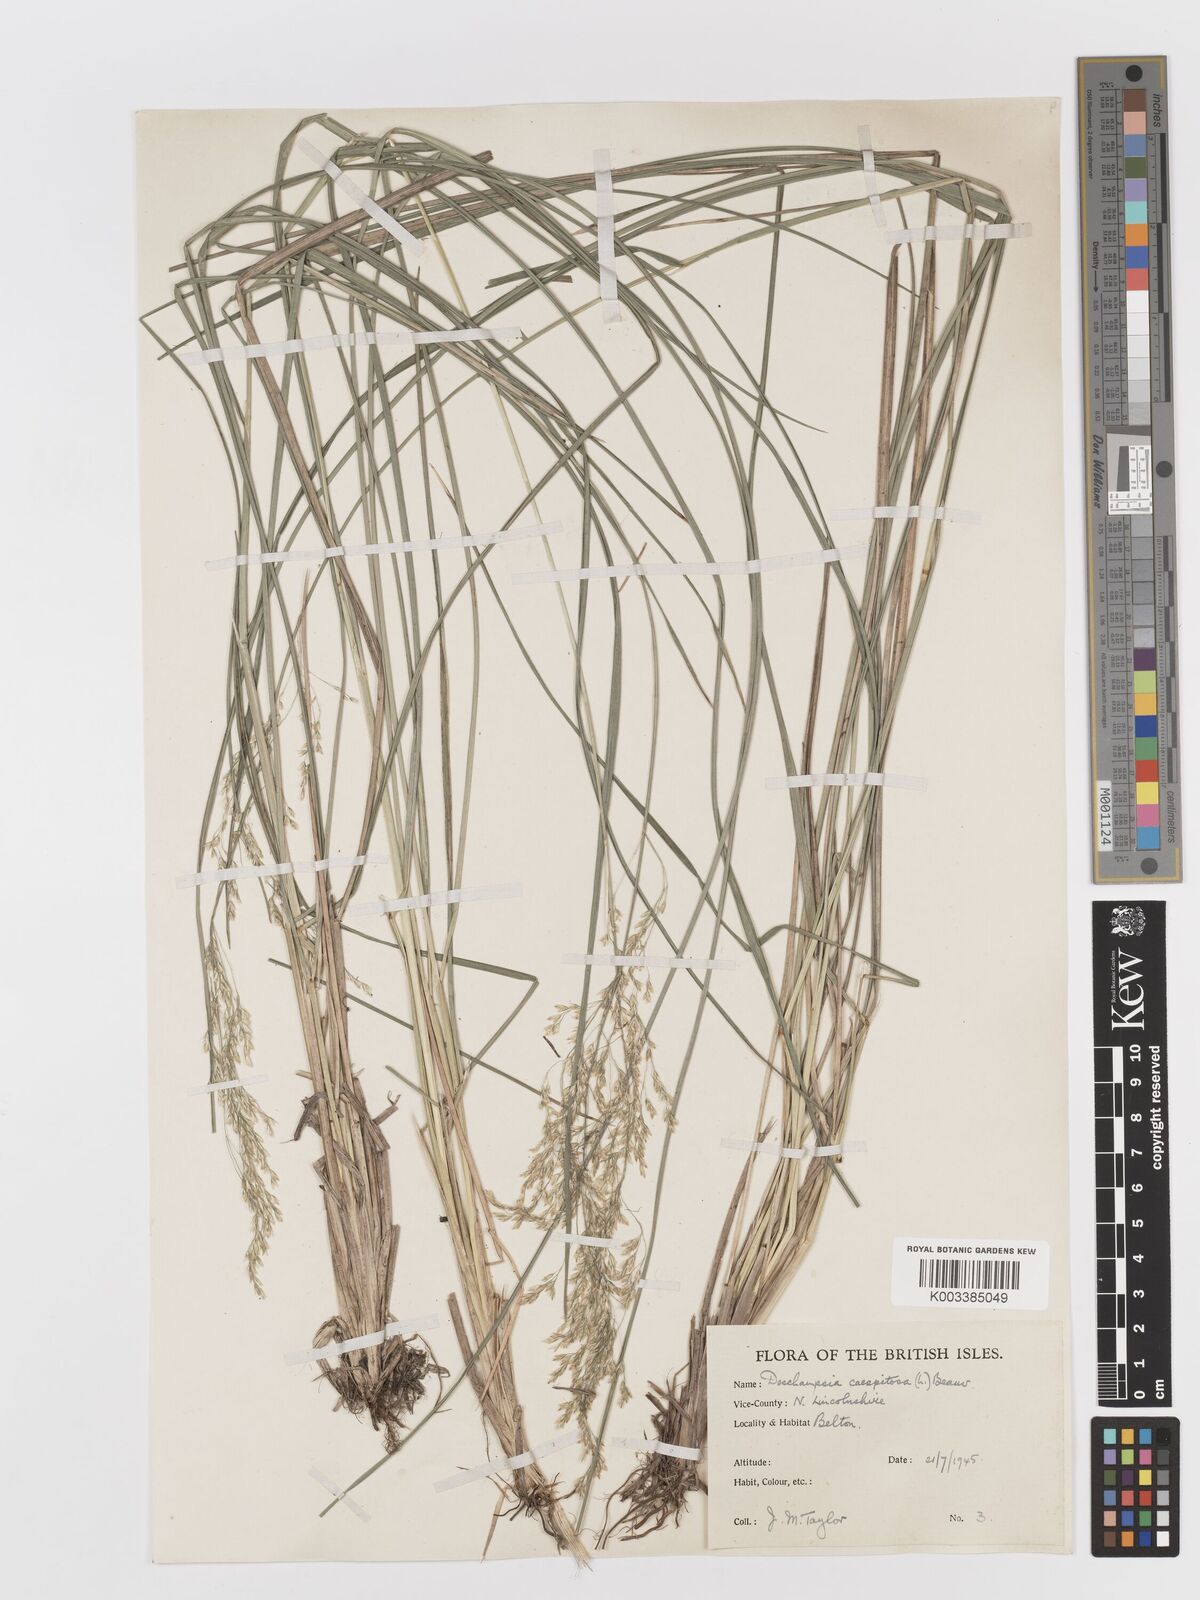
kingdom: Plantae
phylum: Tracheophyta
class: Liliopsida
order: Poales
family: Poaceae
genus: Deschampsia
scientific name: Deschampsia cespitosa
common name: Tufted hair-grass
